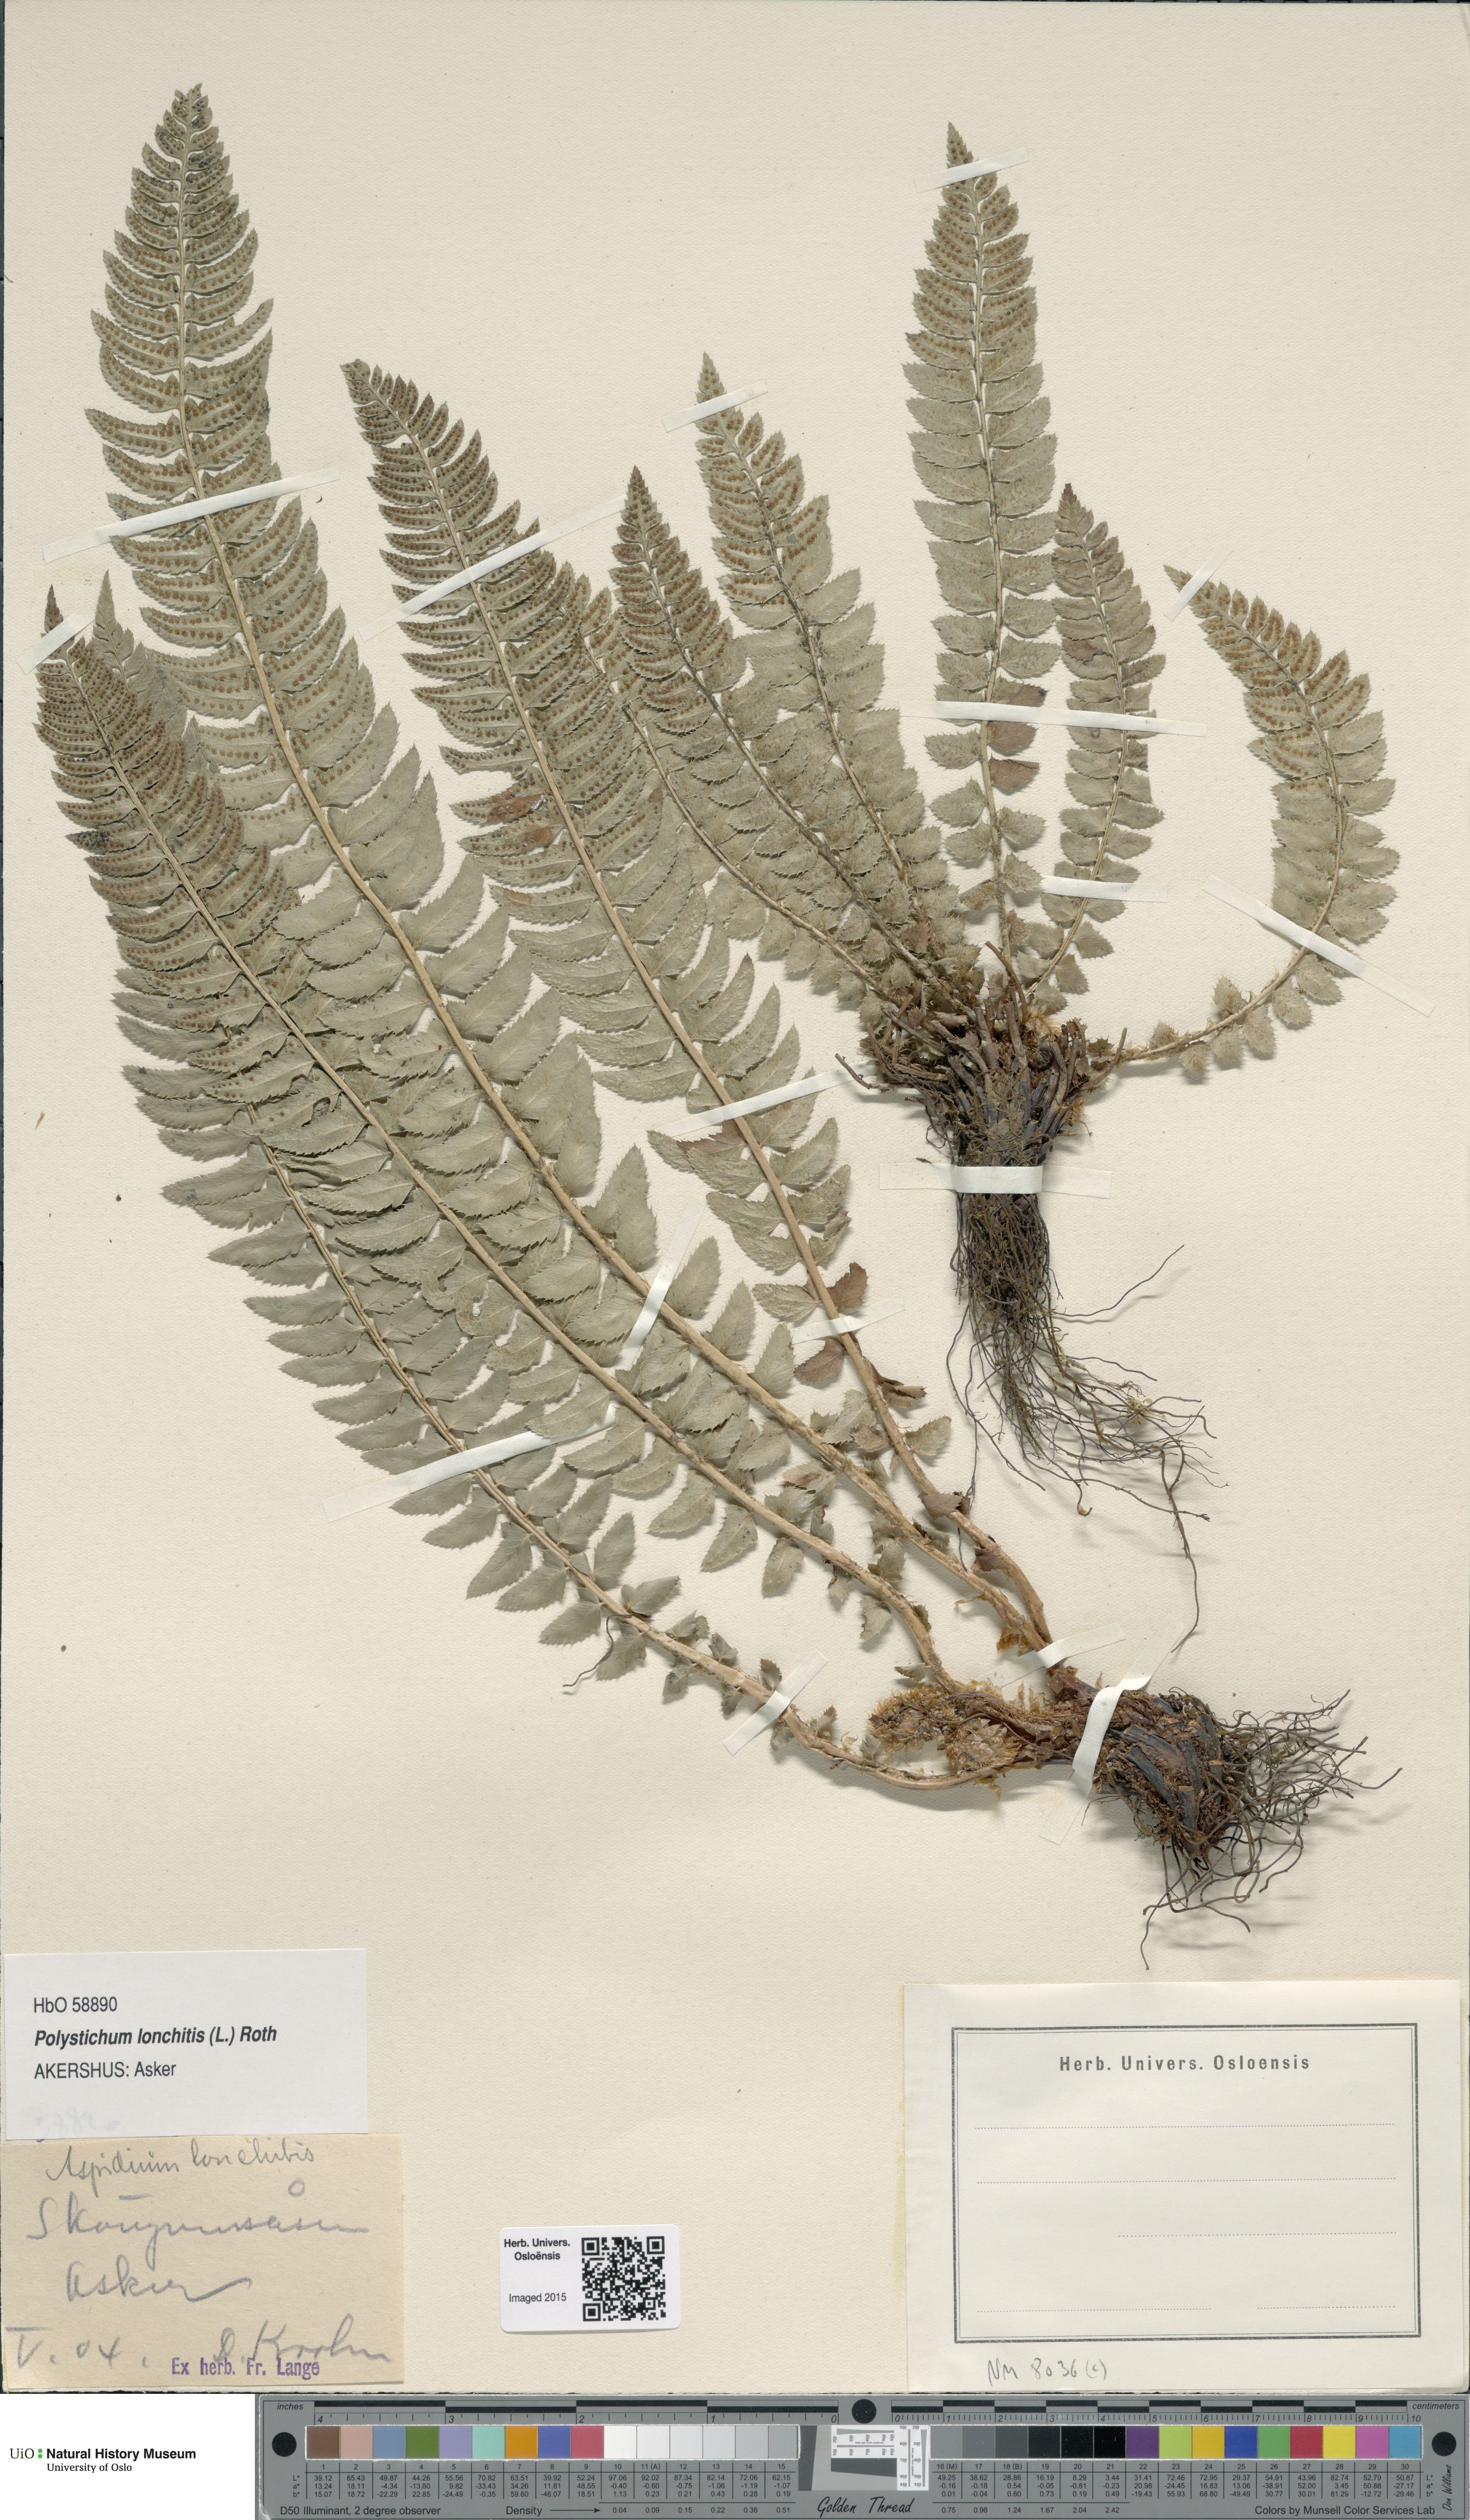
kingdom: Plantae
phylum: Tracheophyta
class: Polypodiopsida
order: Polypodiales
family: Dryopteridaceae
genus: Polystichum
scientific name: Polystichum lonchitis
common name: Holly fern
